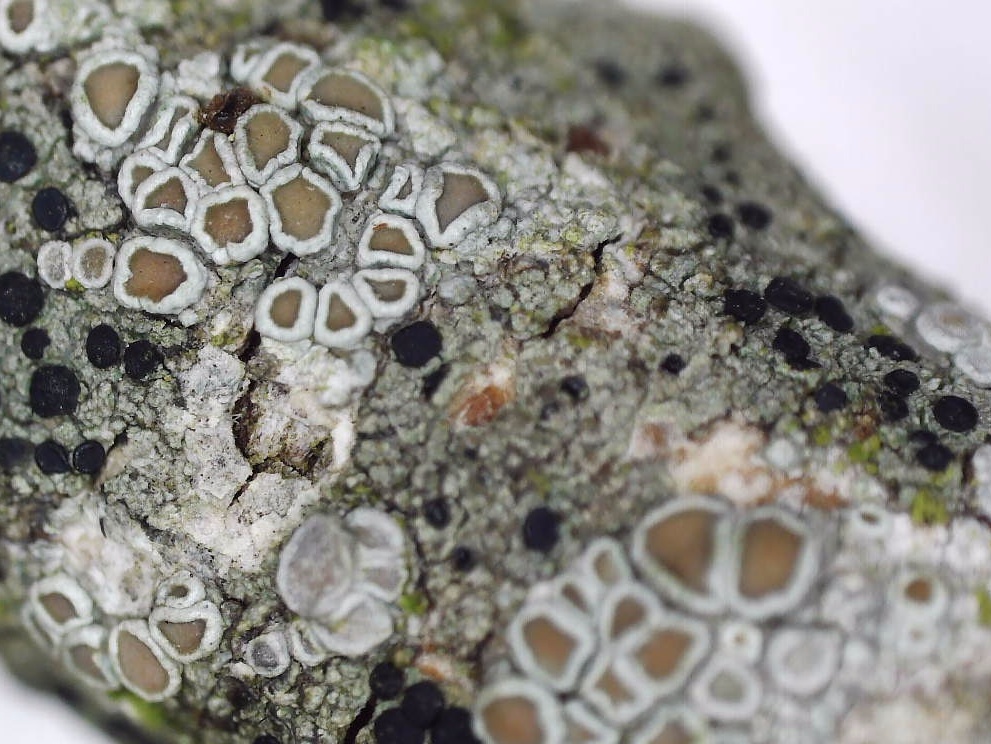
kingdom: Fungi
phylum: Ascomycota
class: Lecanoromycetes
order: Lecanorales
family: Lecanoraceae
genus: Lecanora
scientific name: Lecanora chlarotera
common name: brun kantskivelav
